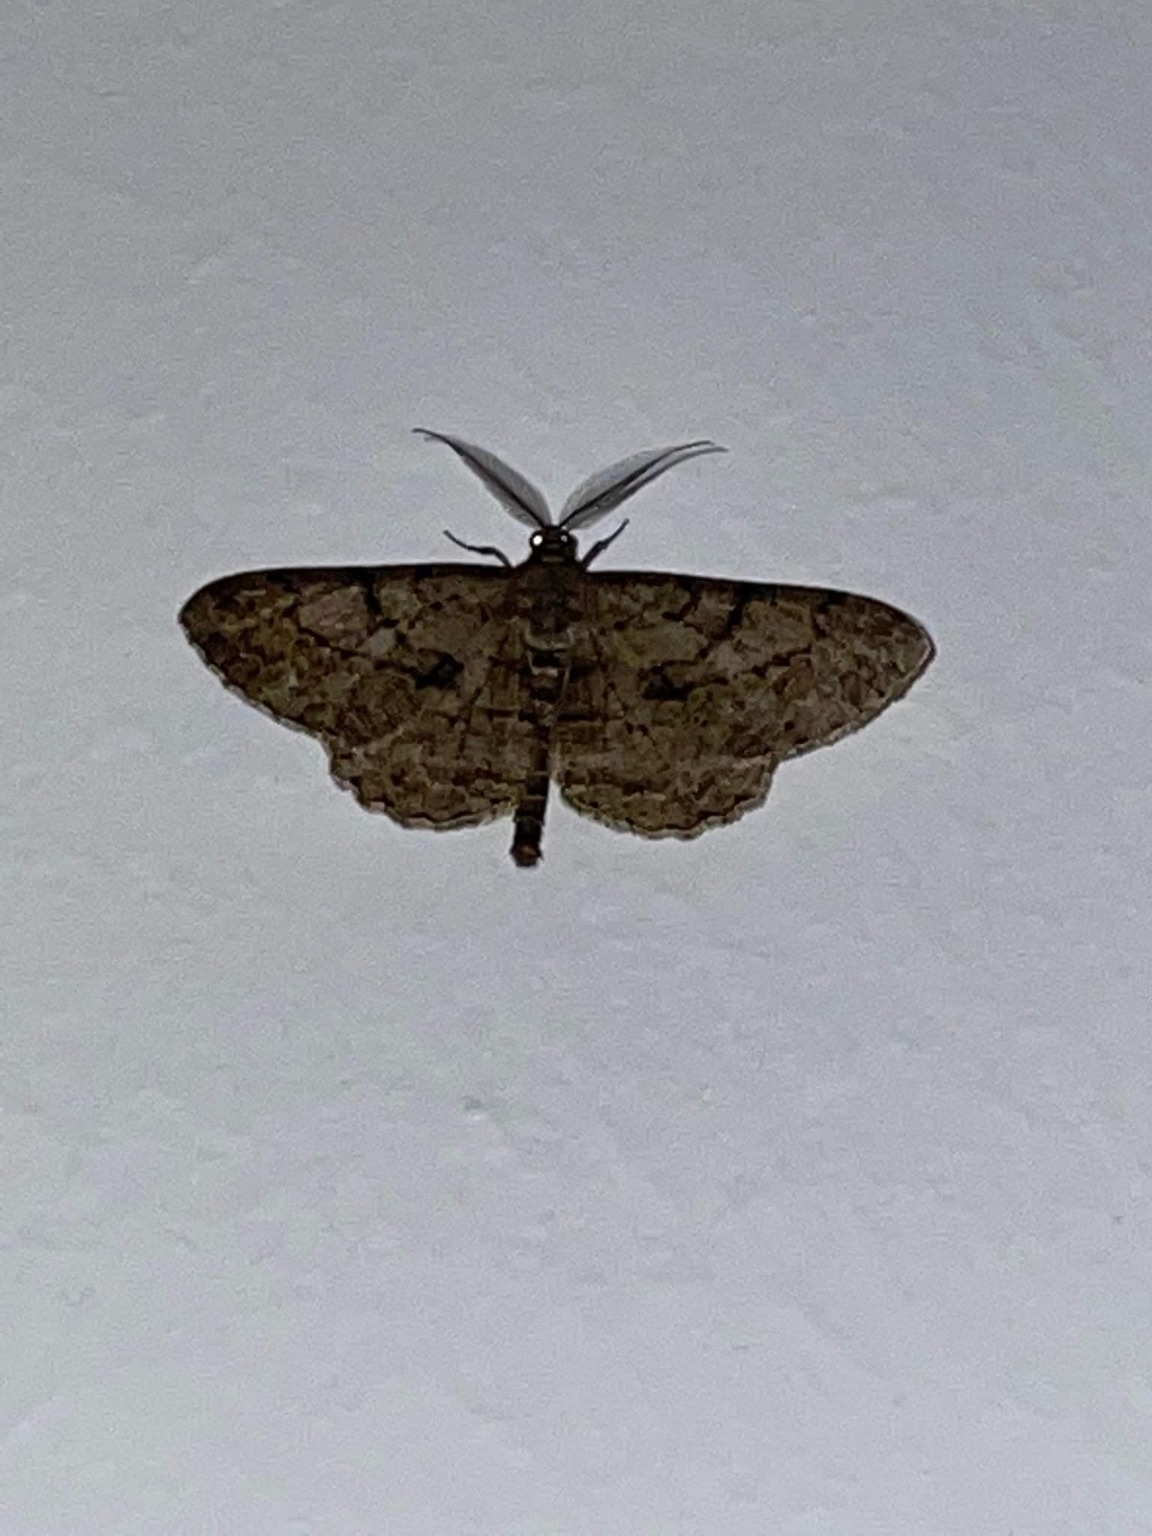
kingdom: Animalia
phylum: Arthropoda
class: Insecta
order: Lepidoptera
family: Geometridae
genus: Peribatodes
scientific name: Peribatodes rhomboidaria
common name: Frugttræ-barkmåler
